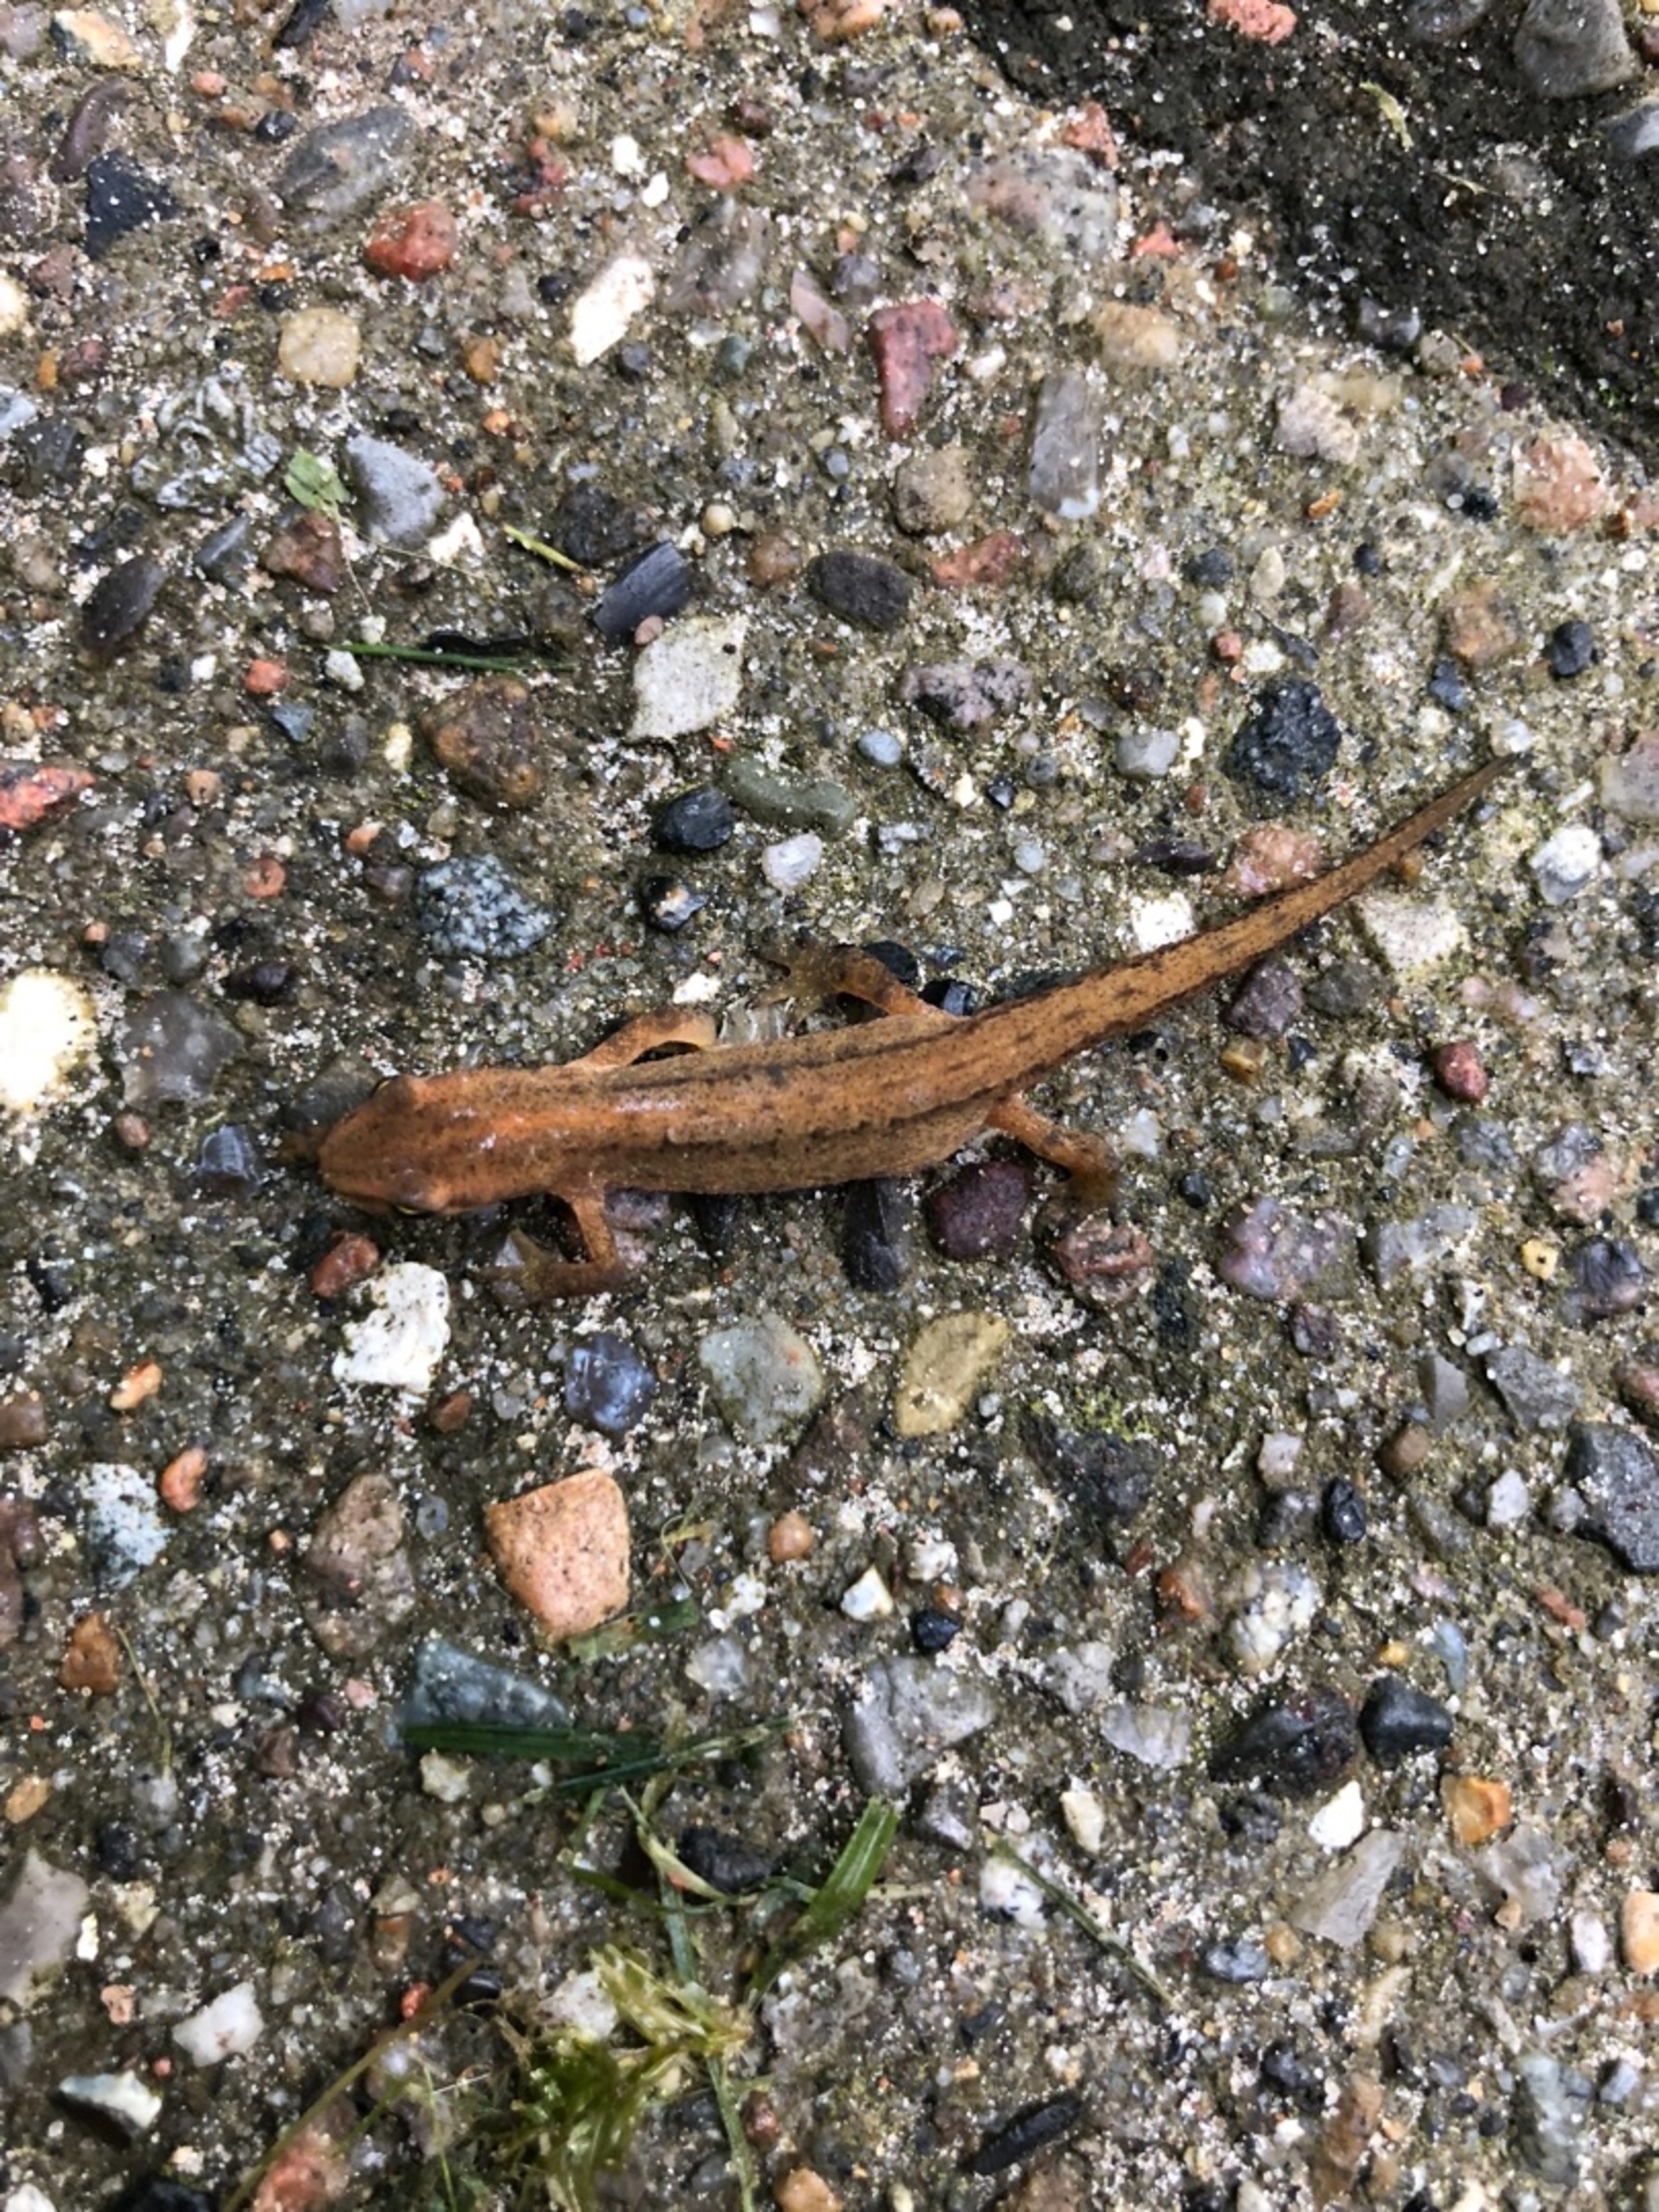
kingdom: Animalia
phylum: Chordata
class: Amphibia
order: Caudata
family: Salamandridae
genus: Lissotriton
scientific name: Lissotriton vulgaris
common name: Lille vandsalamander
